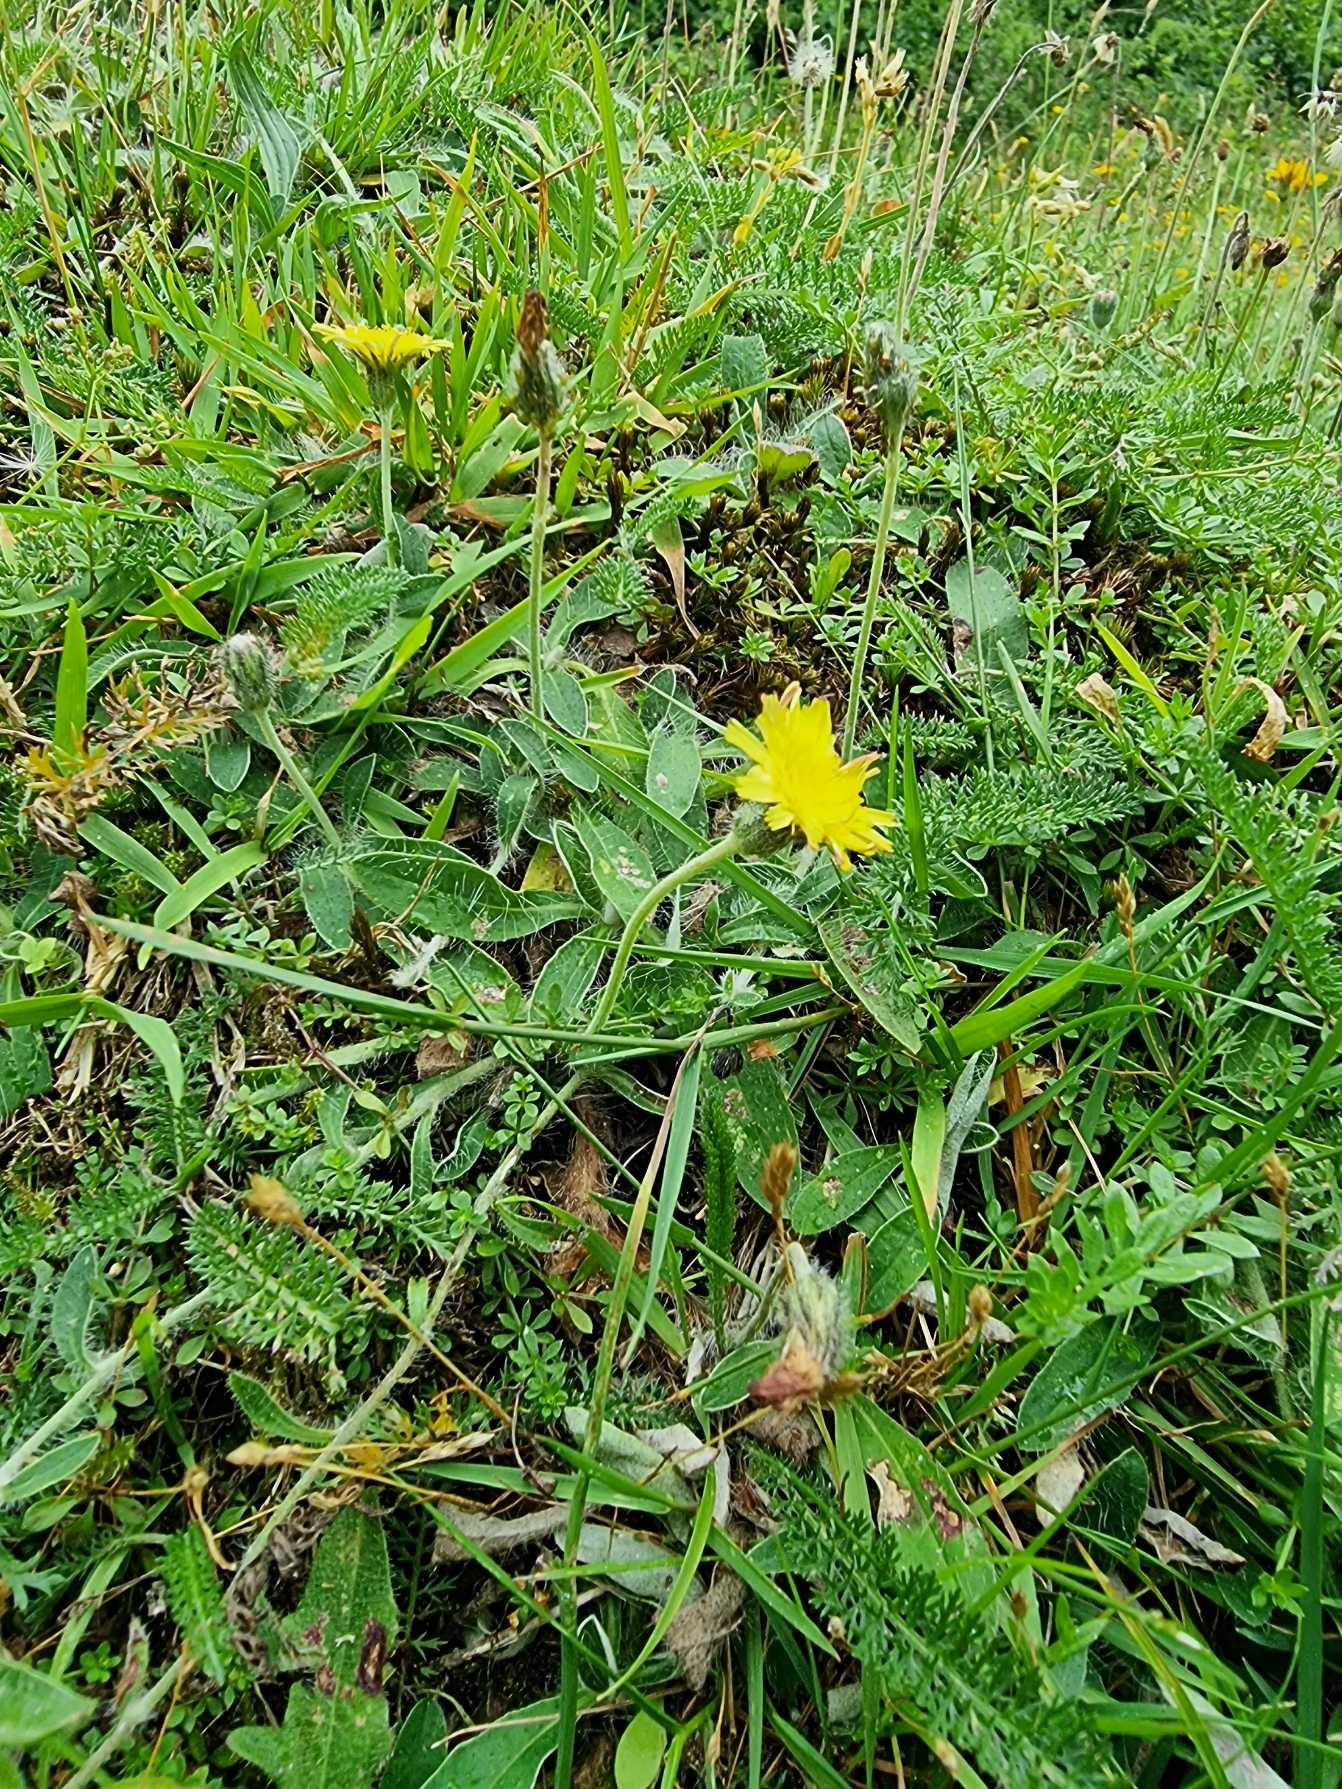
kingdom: Plantae
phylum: Tracheophyta
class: Magnoliopsida
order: Asterales
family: Asteraceae
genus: Pilosella
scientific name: Pilosella officinarum
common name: Håret høgeurt
